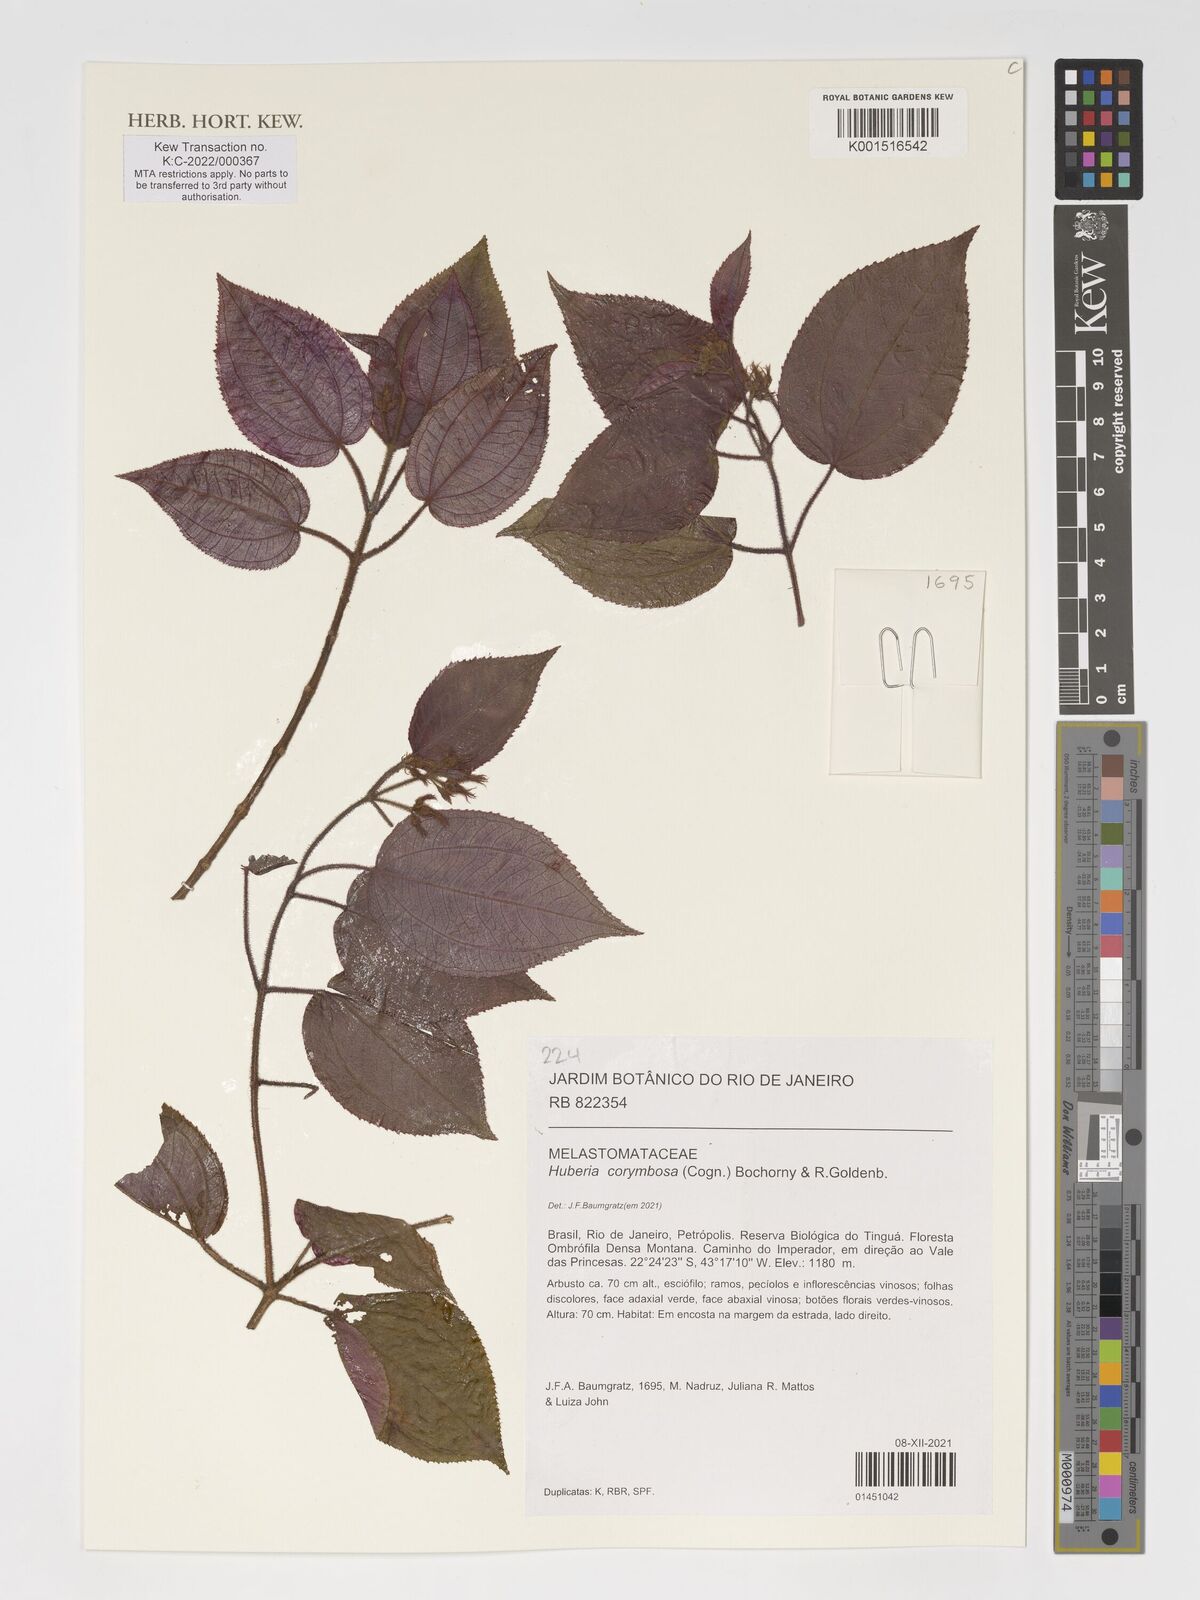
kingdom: Plantae
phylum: Tracheophyta
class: Magnoliopsida
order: Myrtales
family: Melastomataceae
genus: Huberia
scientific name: Huberia corymbosa
